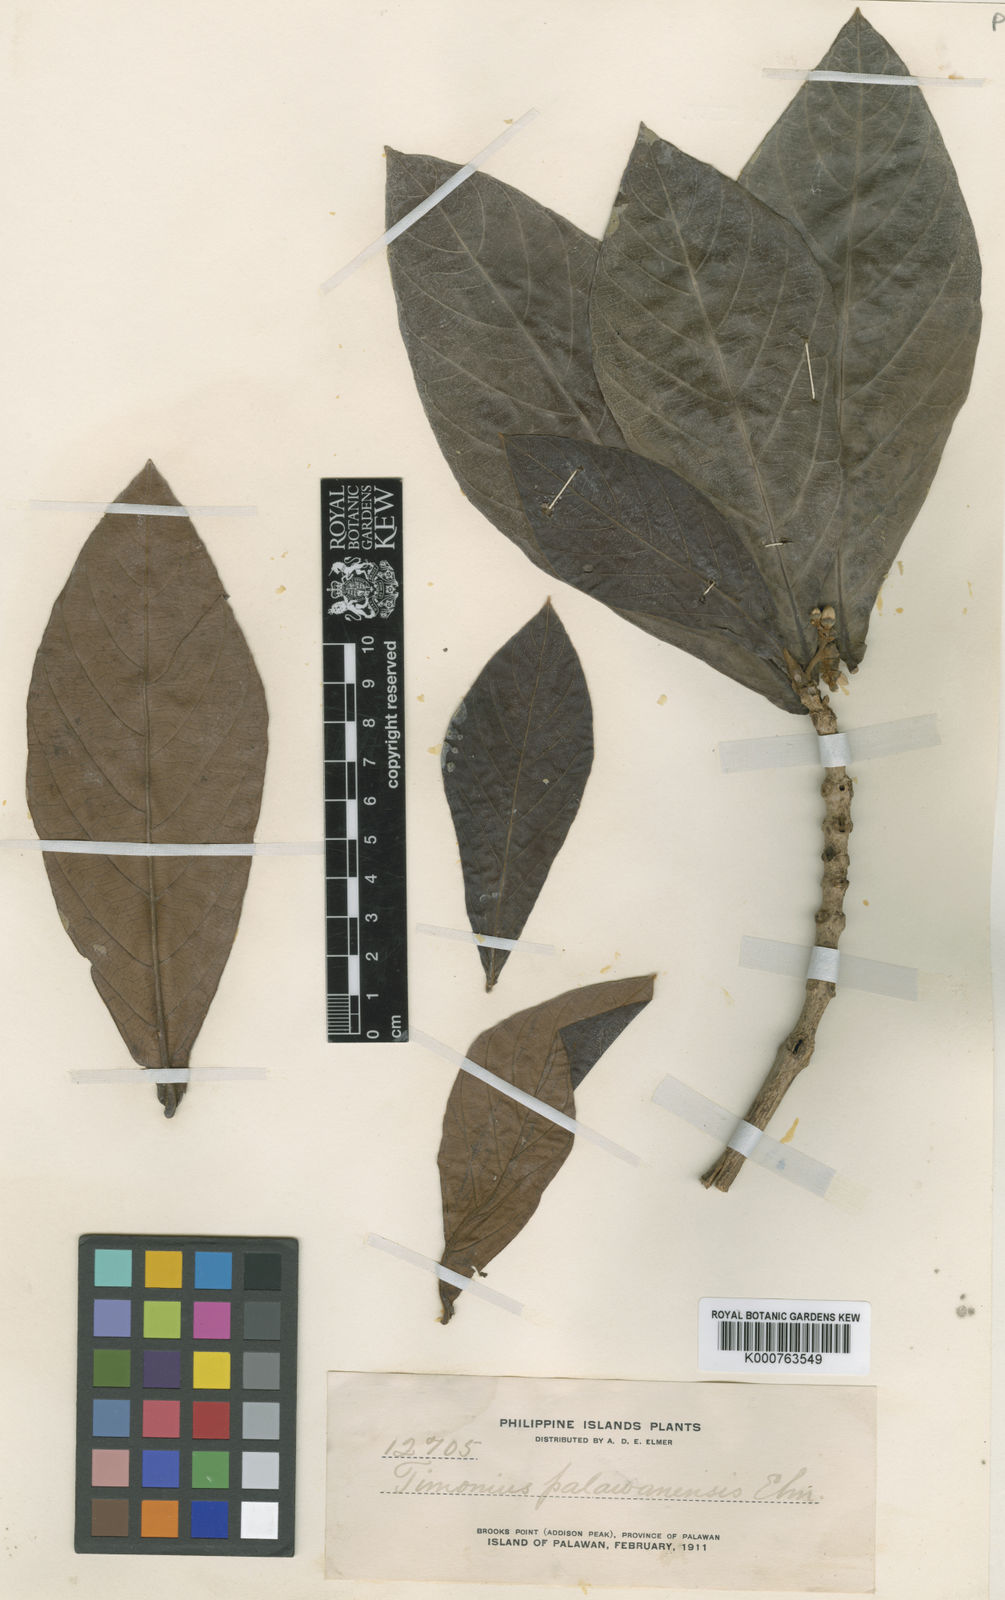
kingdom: Plantae
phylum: Tracheophyta
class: Magnoliopsida
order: Gentianales
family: Rubiaceae
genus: Timonius
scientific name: Timonius palawanensis
